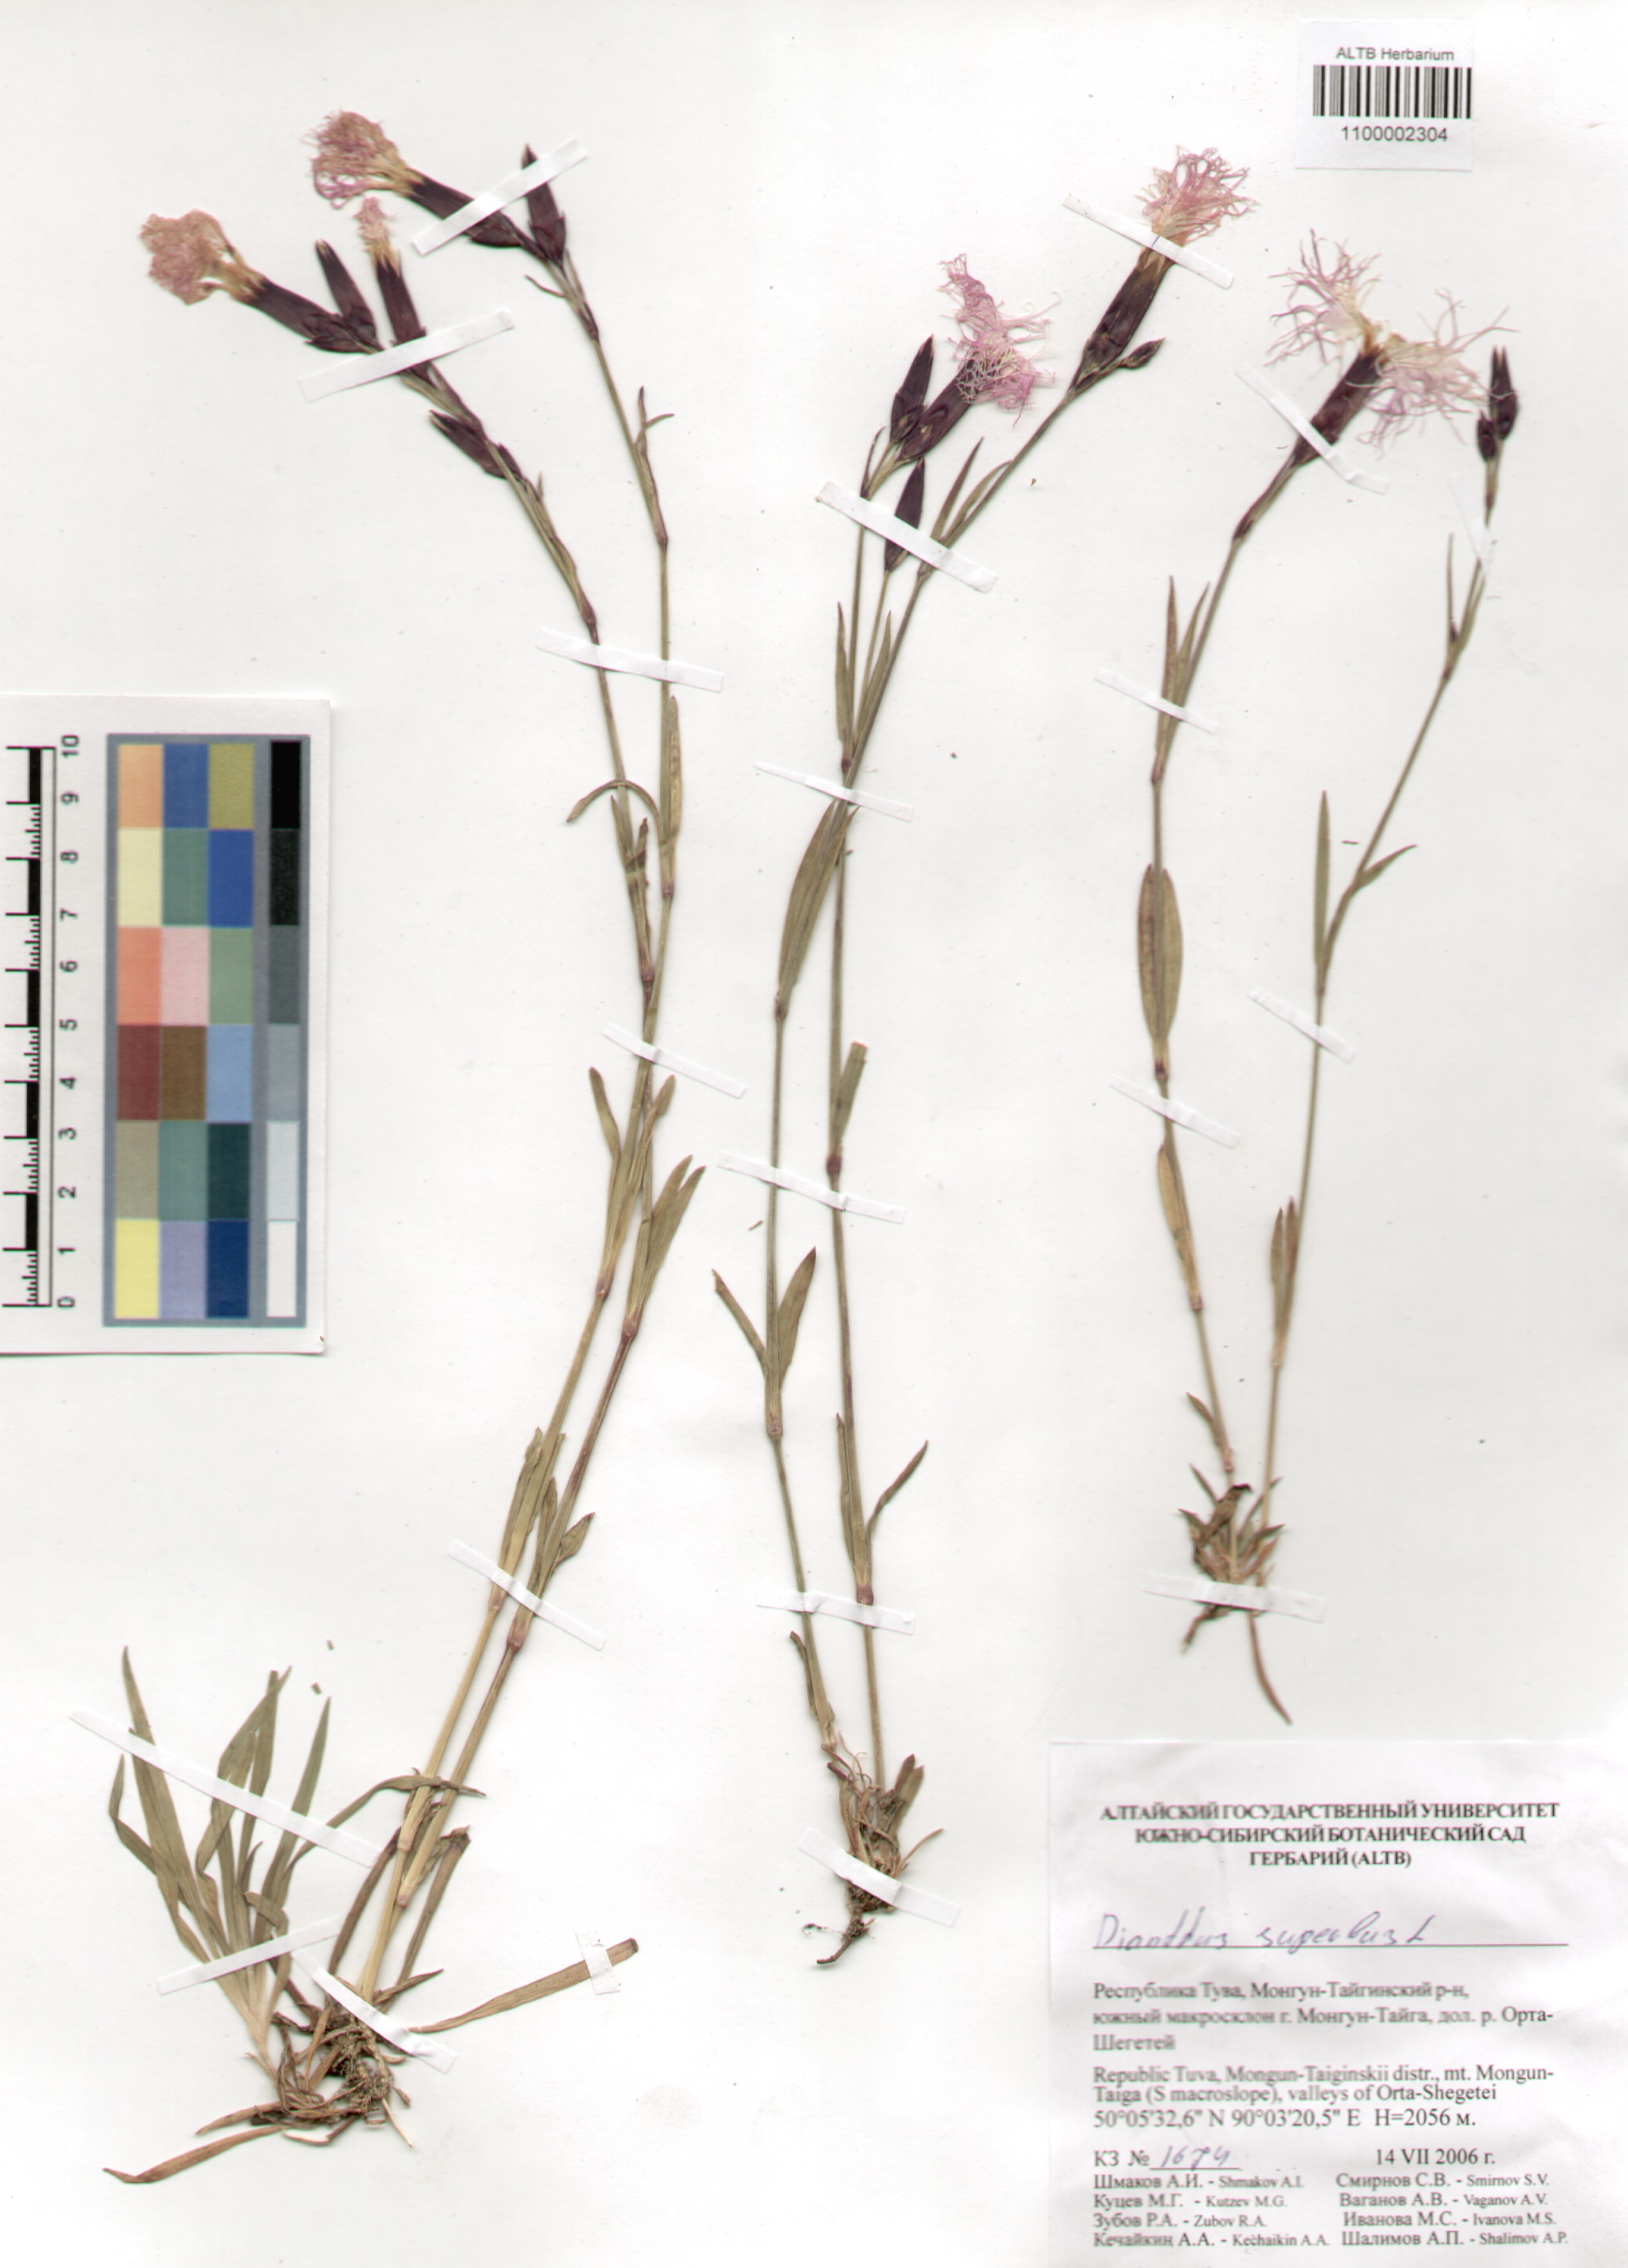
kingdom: Plantae
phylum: Tracheophyta
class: Magnoliopsida
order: Caryophyllales
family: Caryophyllaceae
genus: Dianthus
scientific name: Dianthus superbus
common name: Fringed pink
